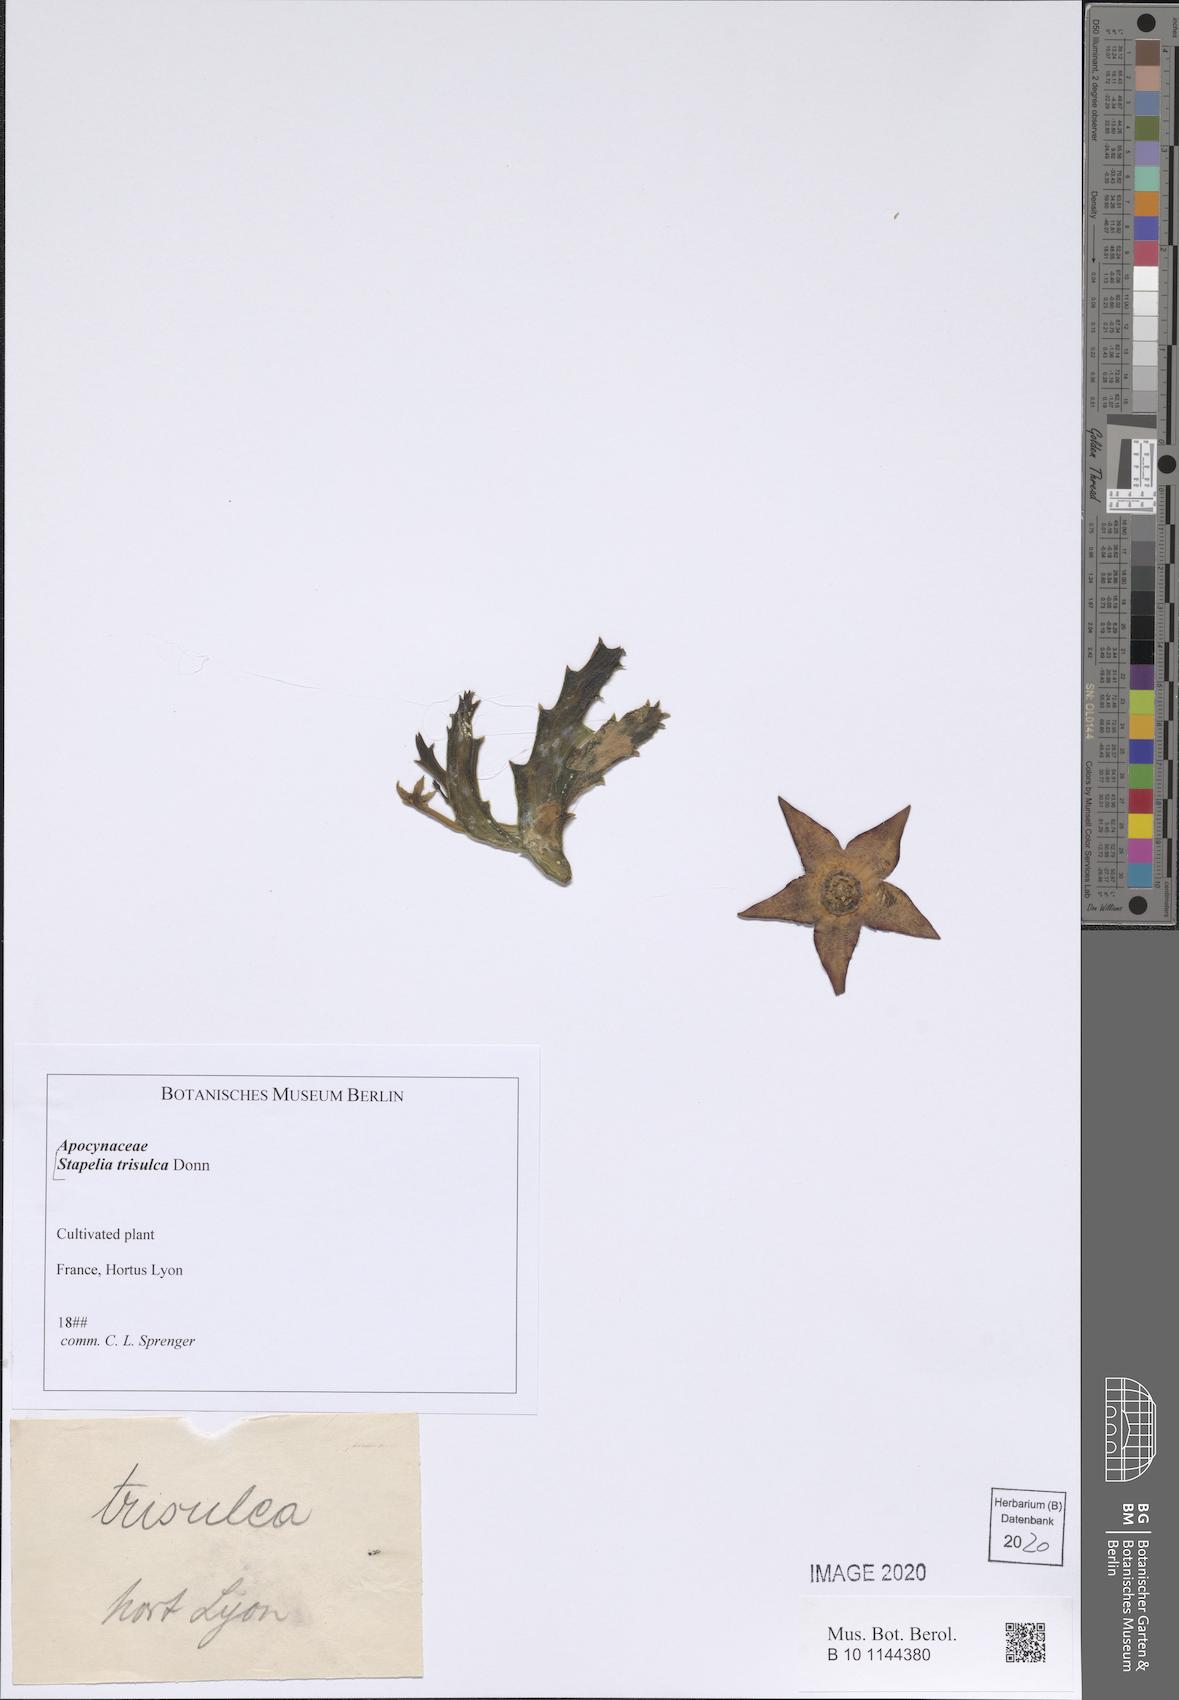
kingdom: Plantae
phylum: Tracheophyta
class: Magnoliopsida
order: Gentianales
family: Apocynaceae
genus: Ceropegia
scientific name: Ceropegia mixta
